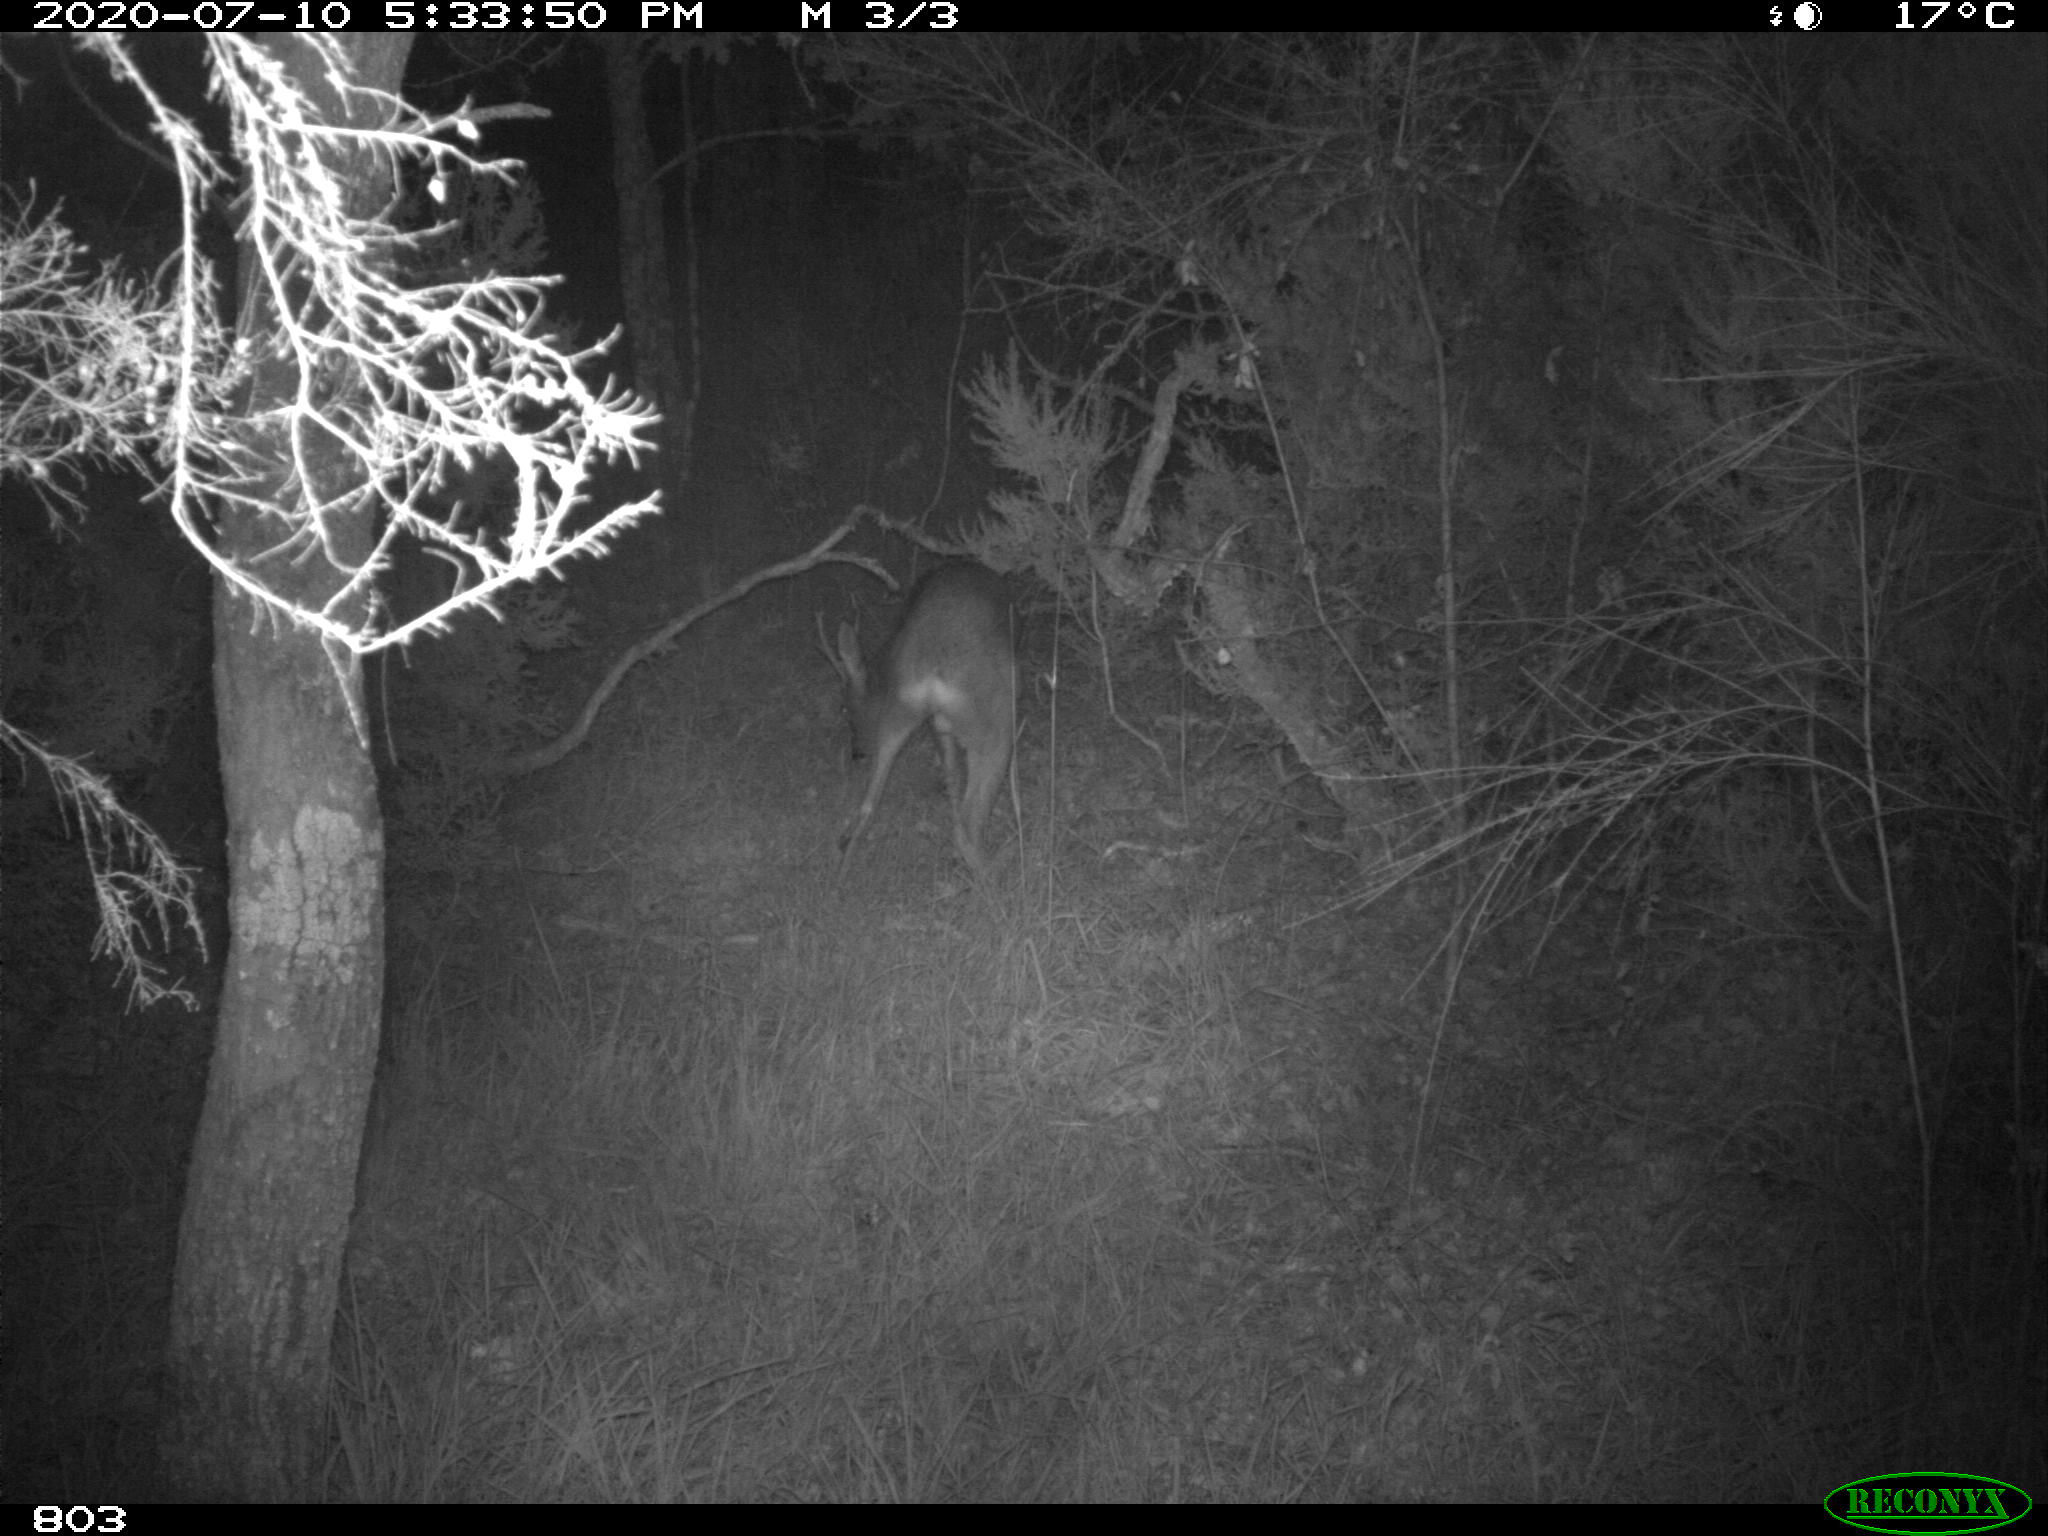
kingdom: Animalia
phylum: Chordata
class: Mammalia
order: Artiodactyla
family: Cervidae
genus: Capreolus
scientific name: Capreolus capreolus
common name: Western roe deer
